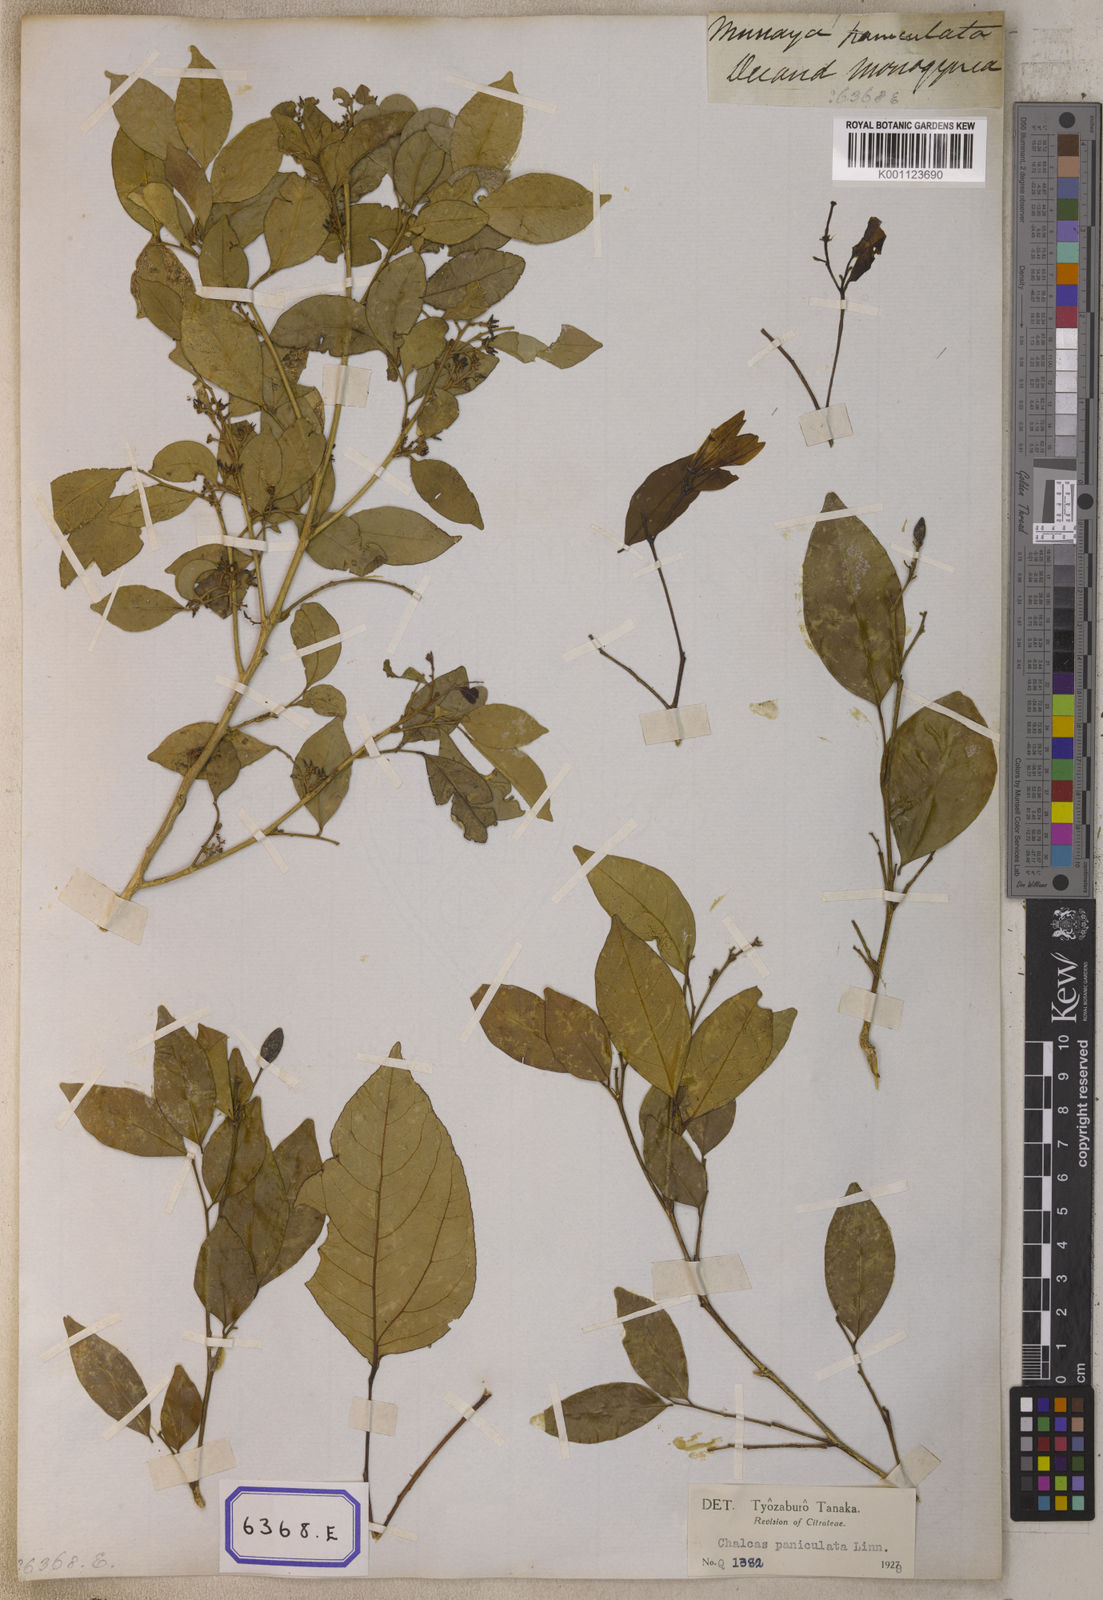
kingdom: Plantae
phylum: Tracheophyta
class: Magnoliopsida
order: Sapindales
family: Rutaceae
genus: Murraya
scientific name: Murraya paniculata
